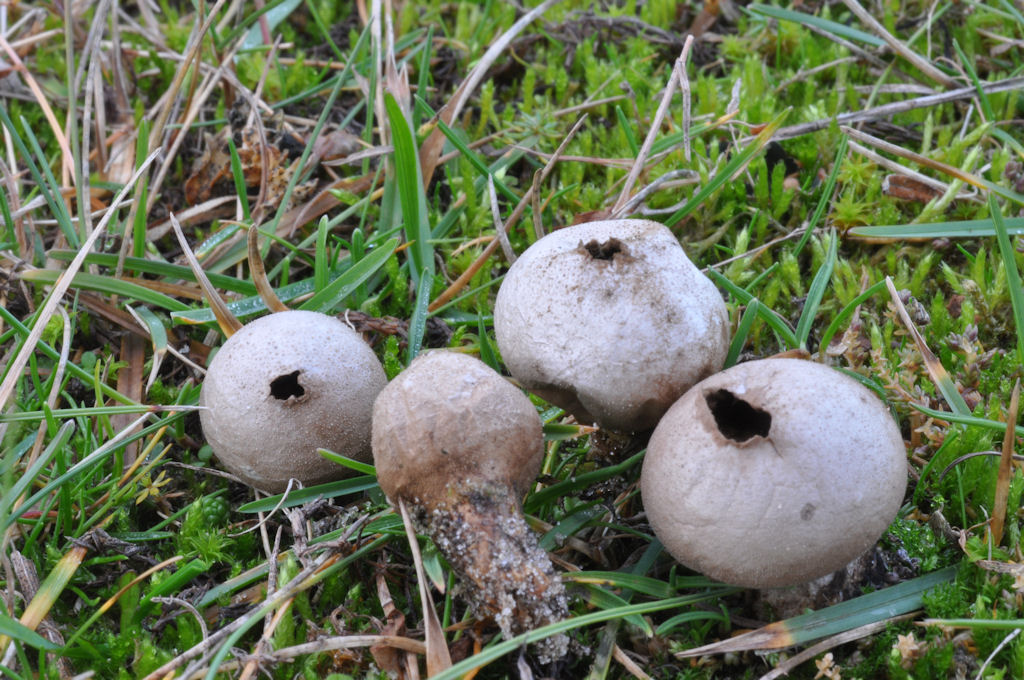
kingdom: Fungi
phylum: Basidiomycota
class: Agaricomycetes
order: Agaricales
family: Lycoperdaceae
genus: Lycoperdon
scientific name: Lycoperdon lividum
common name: mark-støvbold
